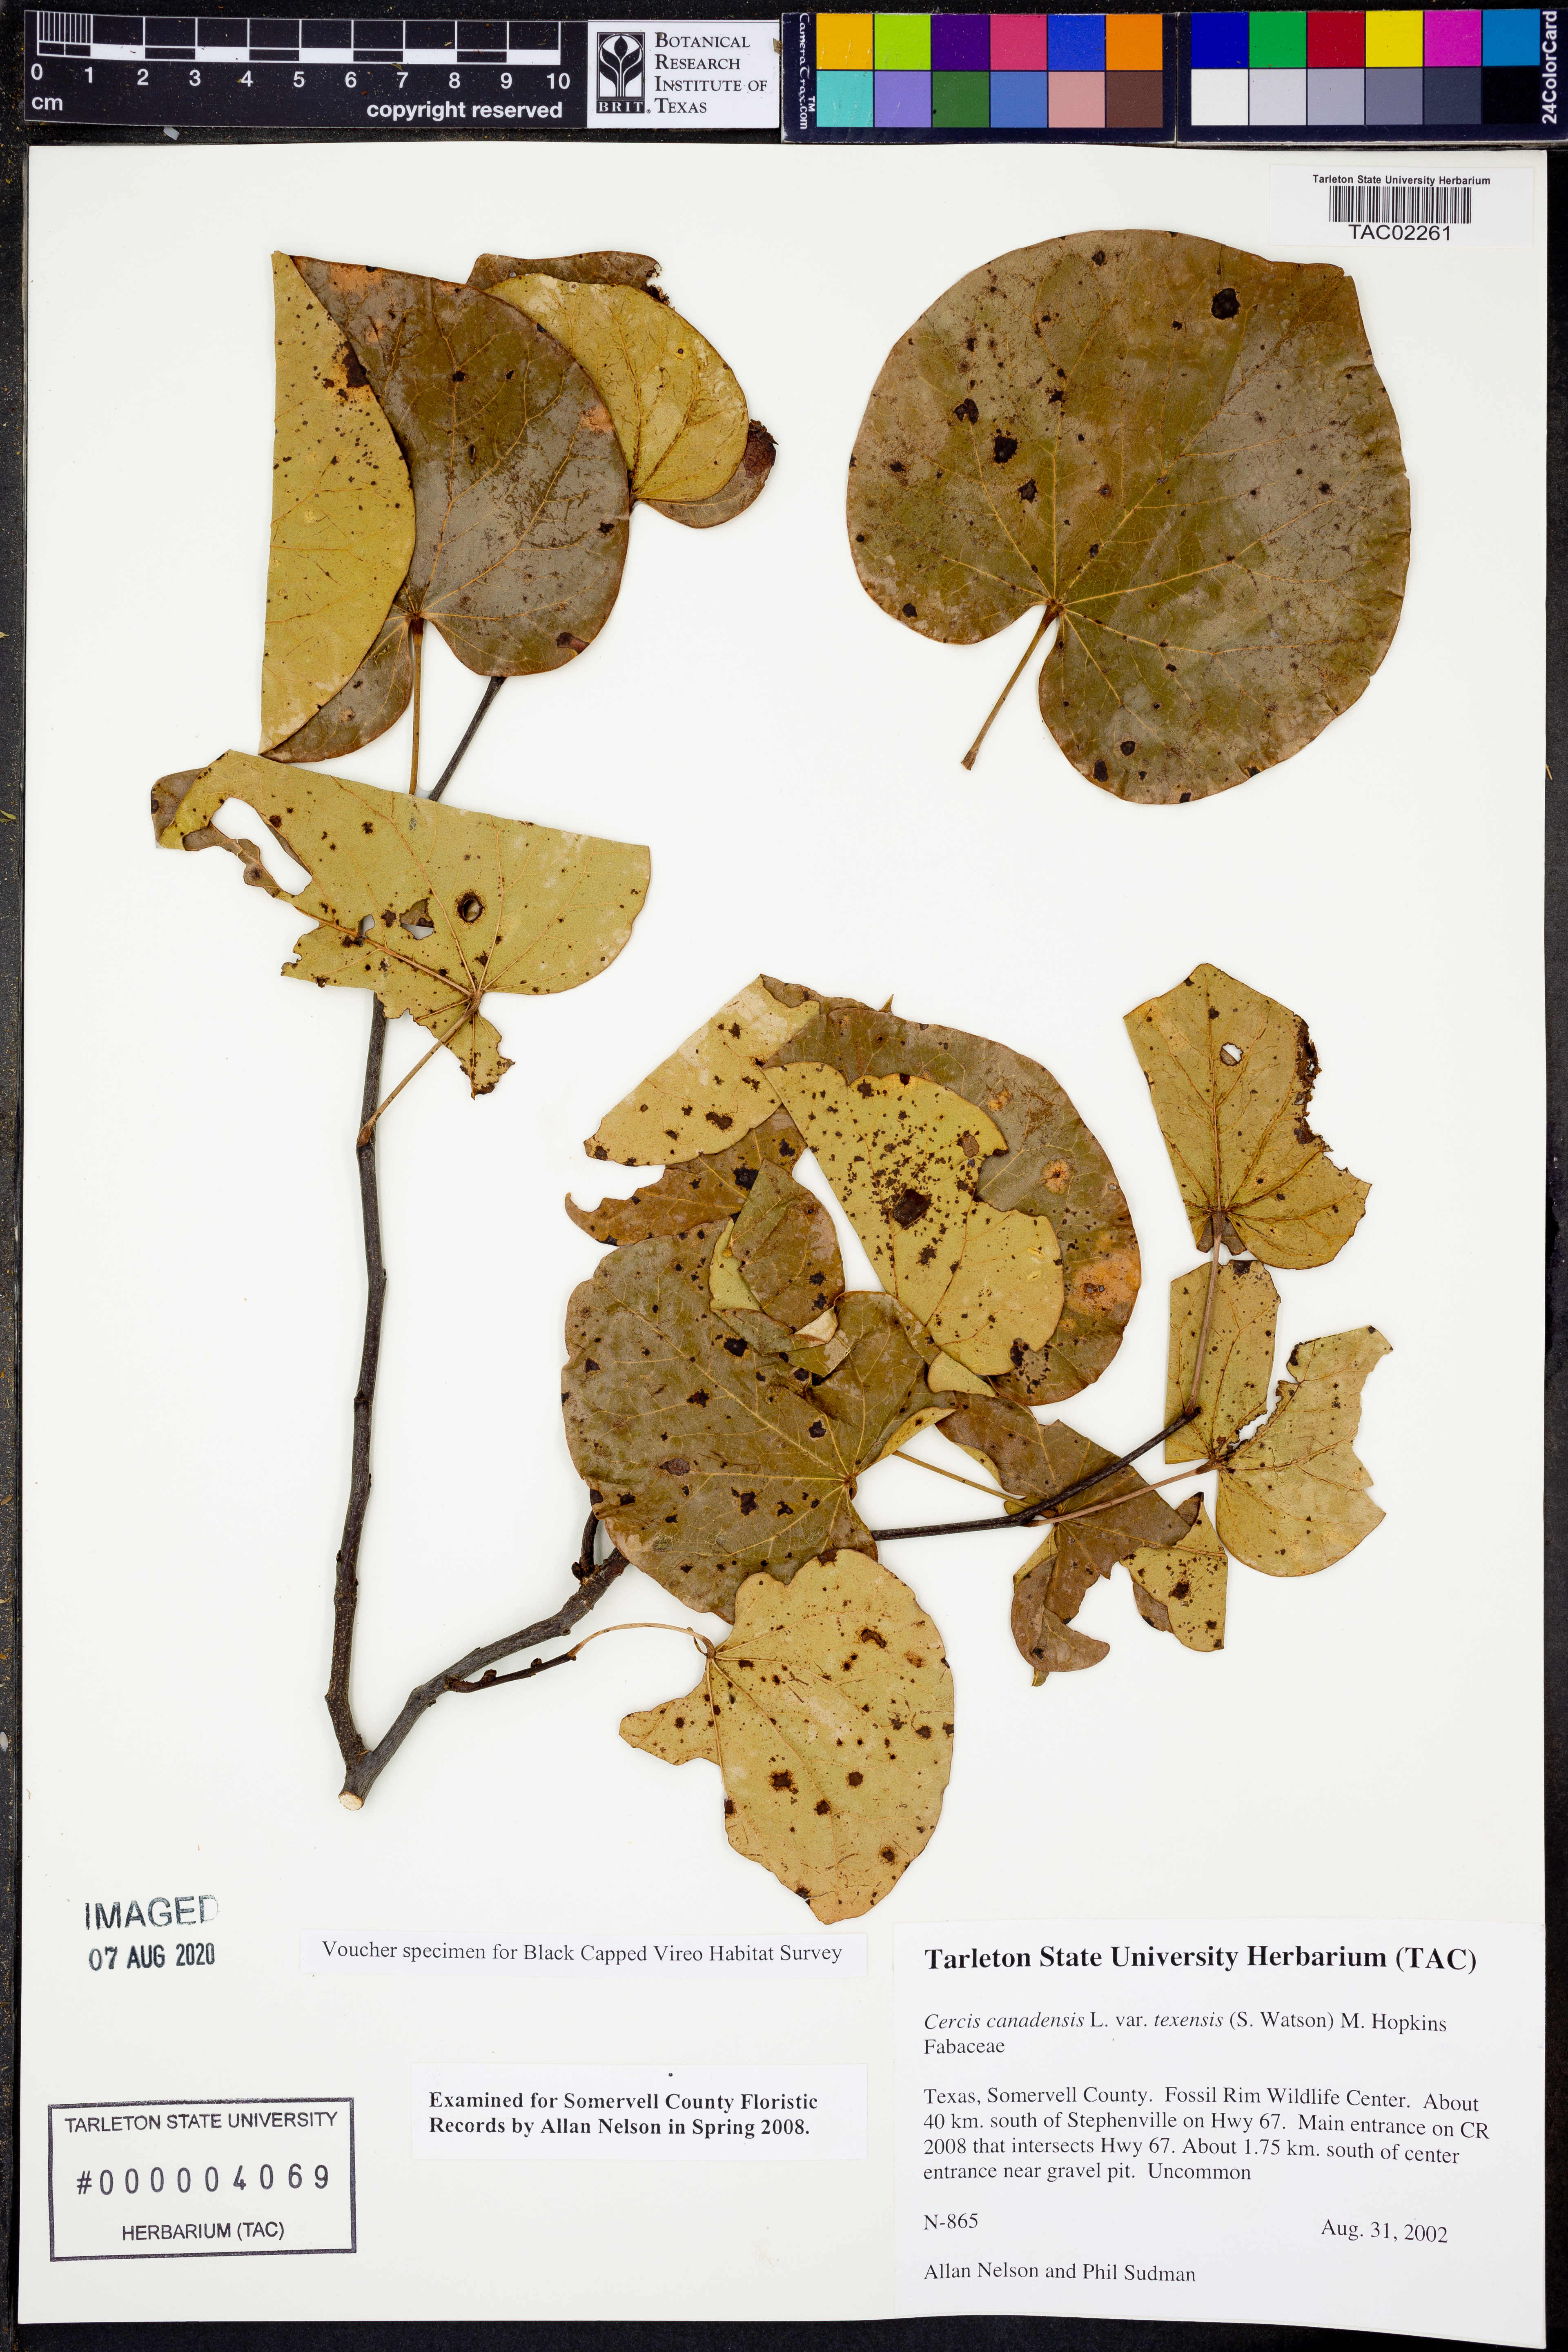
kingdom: Plantae
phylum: Tracheophyta
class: Magnoliopsida
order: Fabales
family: Fabaceae
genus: Cercis
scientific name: Cercis canadensis
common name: Eastern redbud
